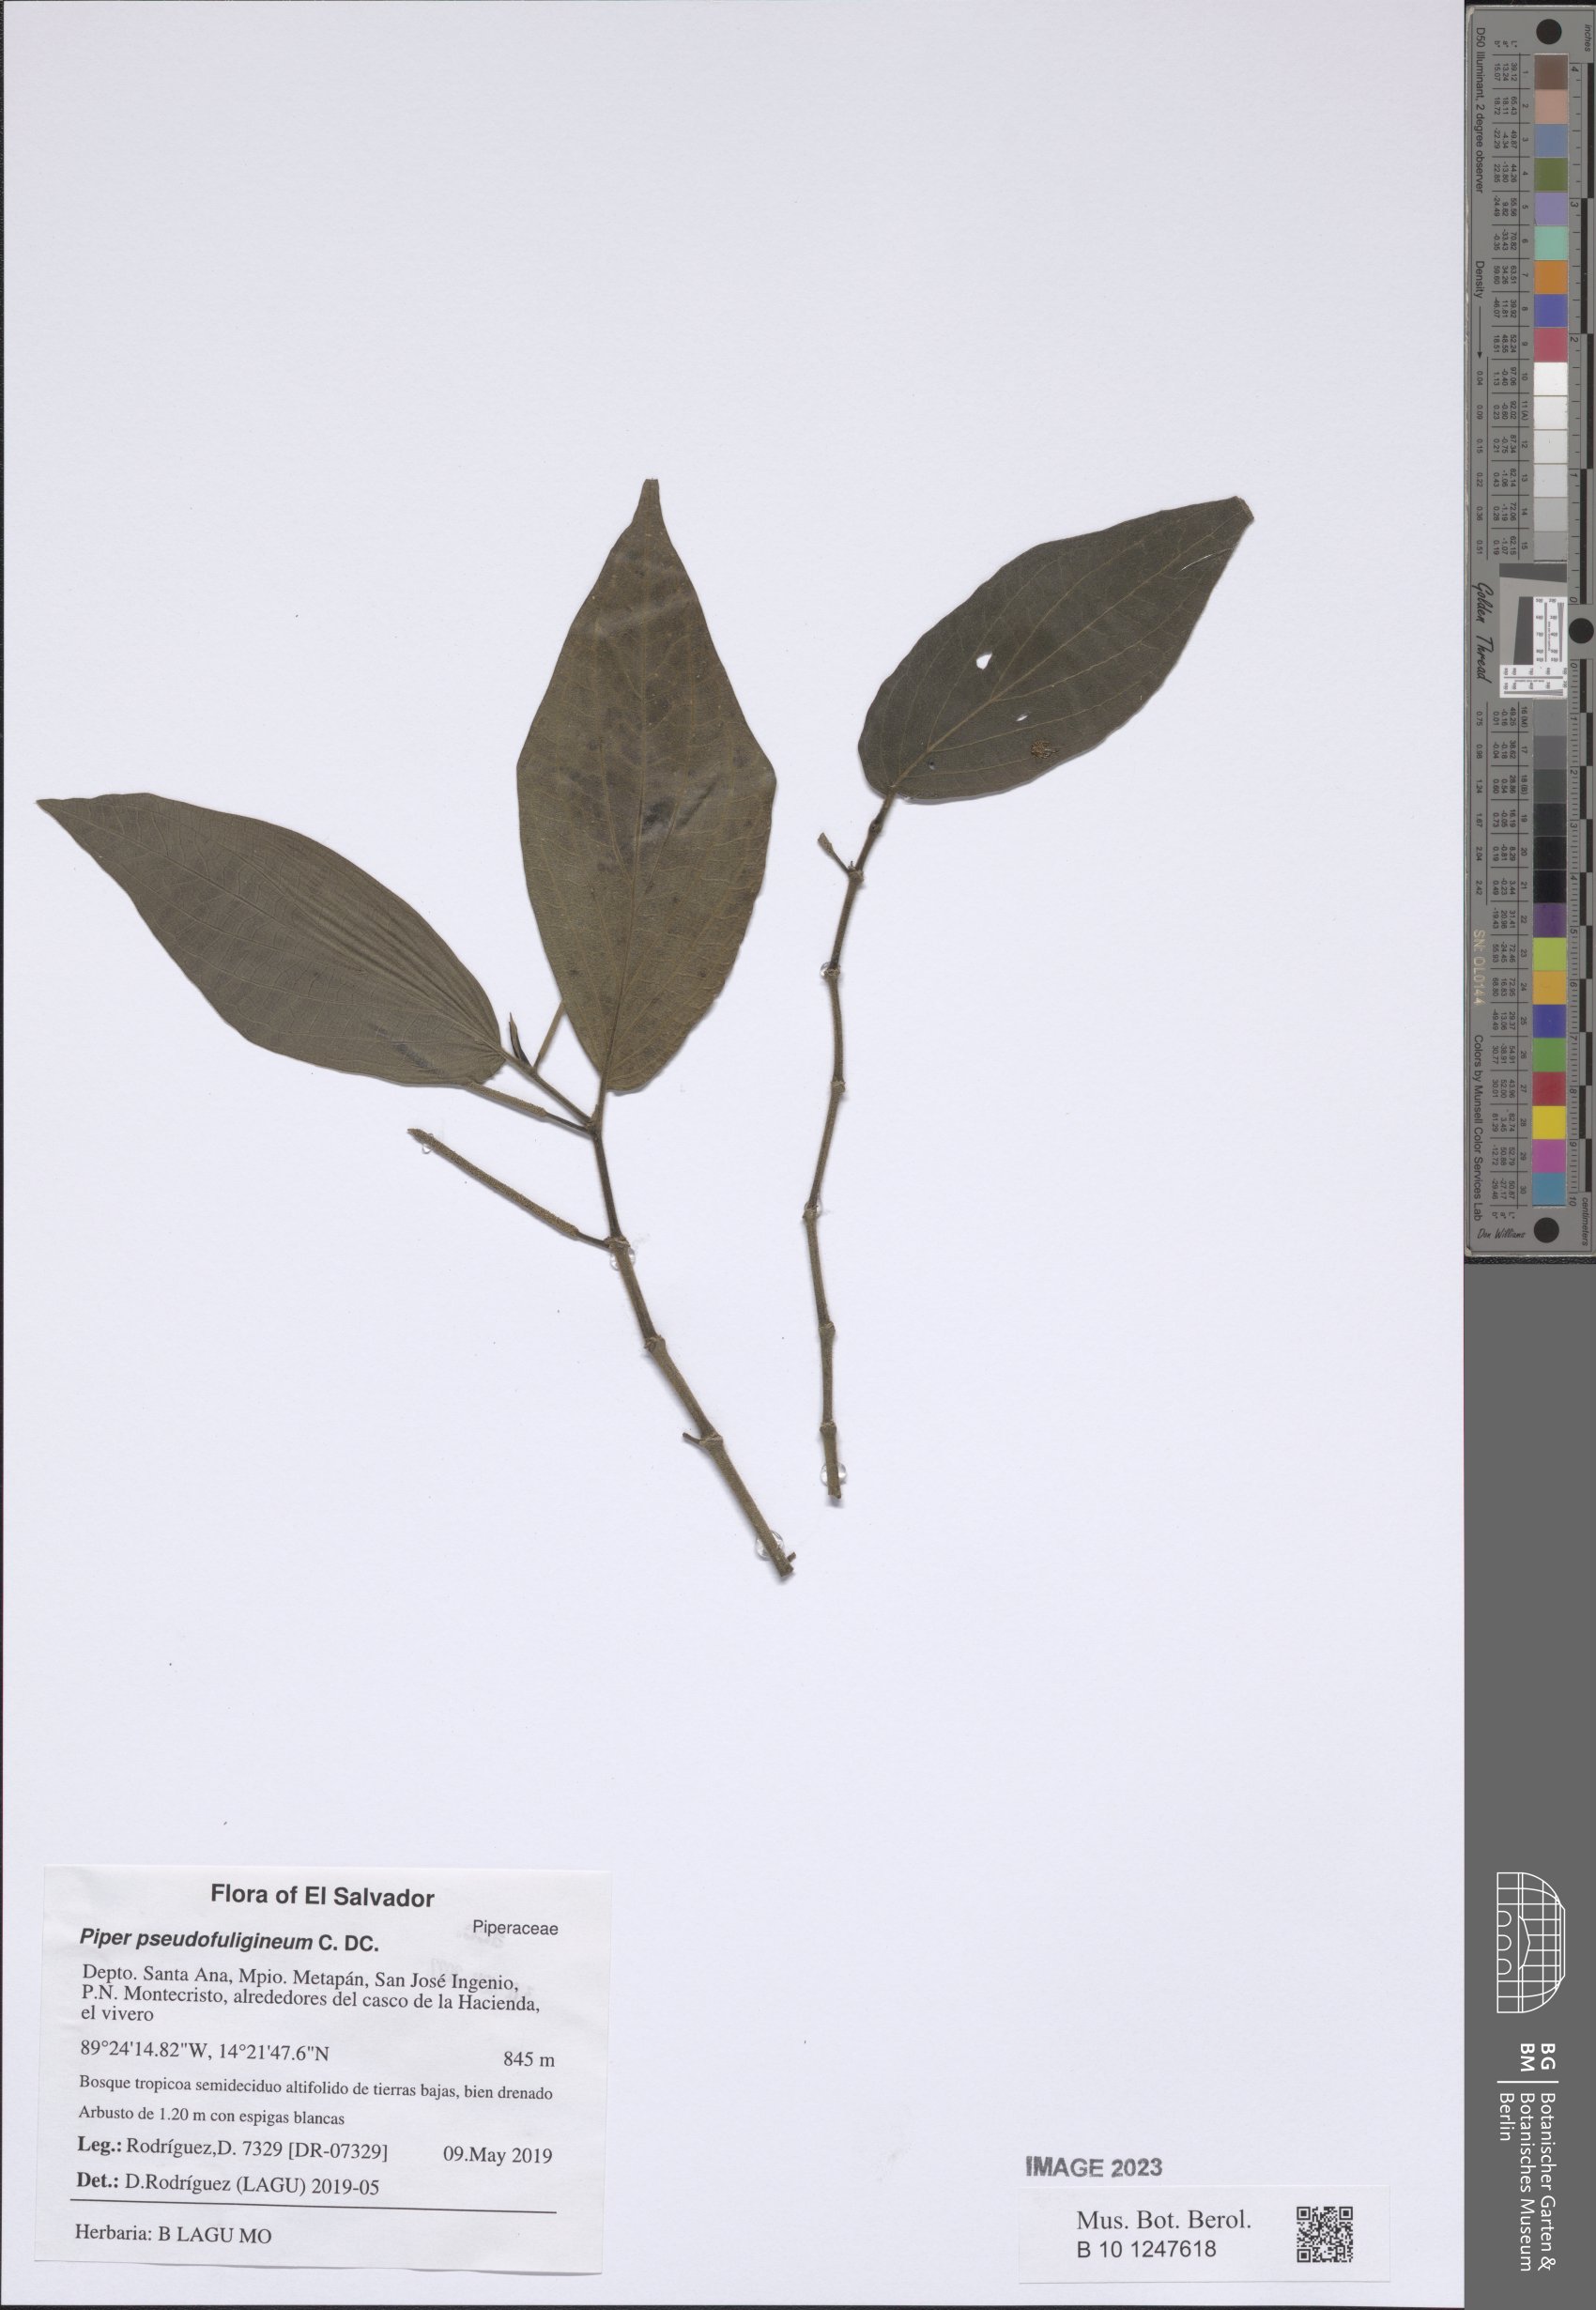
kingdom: Plantae
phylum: Tracheophyta
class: Magnoliopsida
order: Piperales
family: Piperaceae
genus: Piper
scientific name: Piper pseudofuligineum
